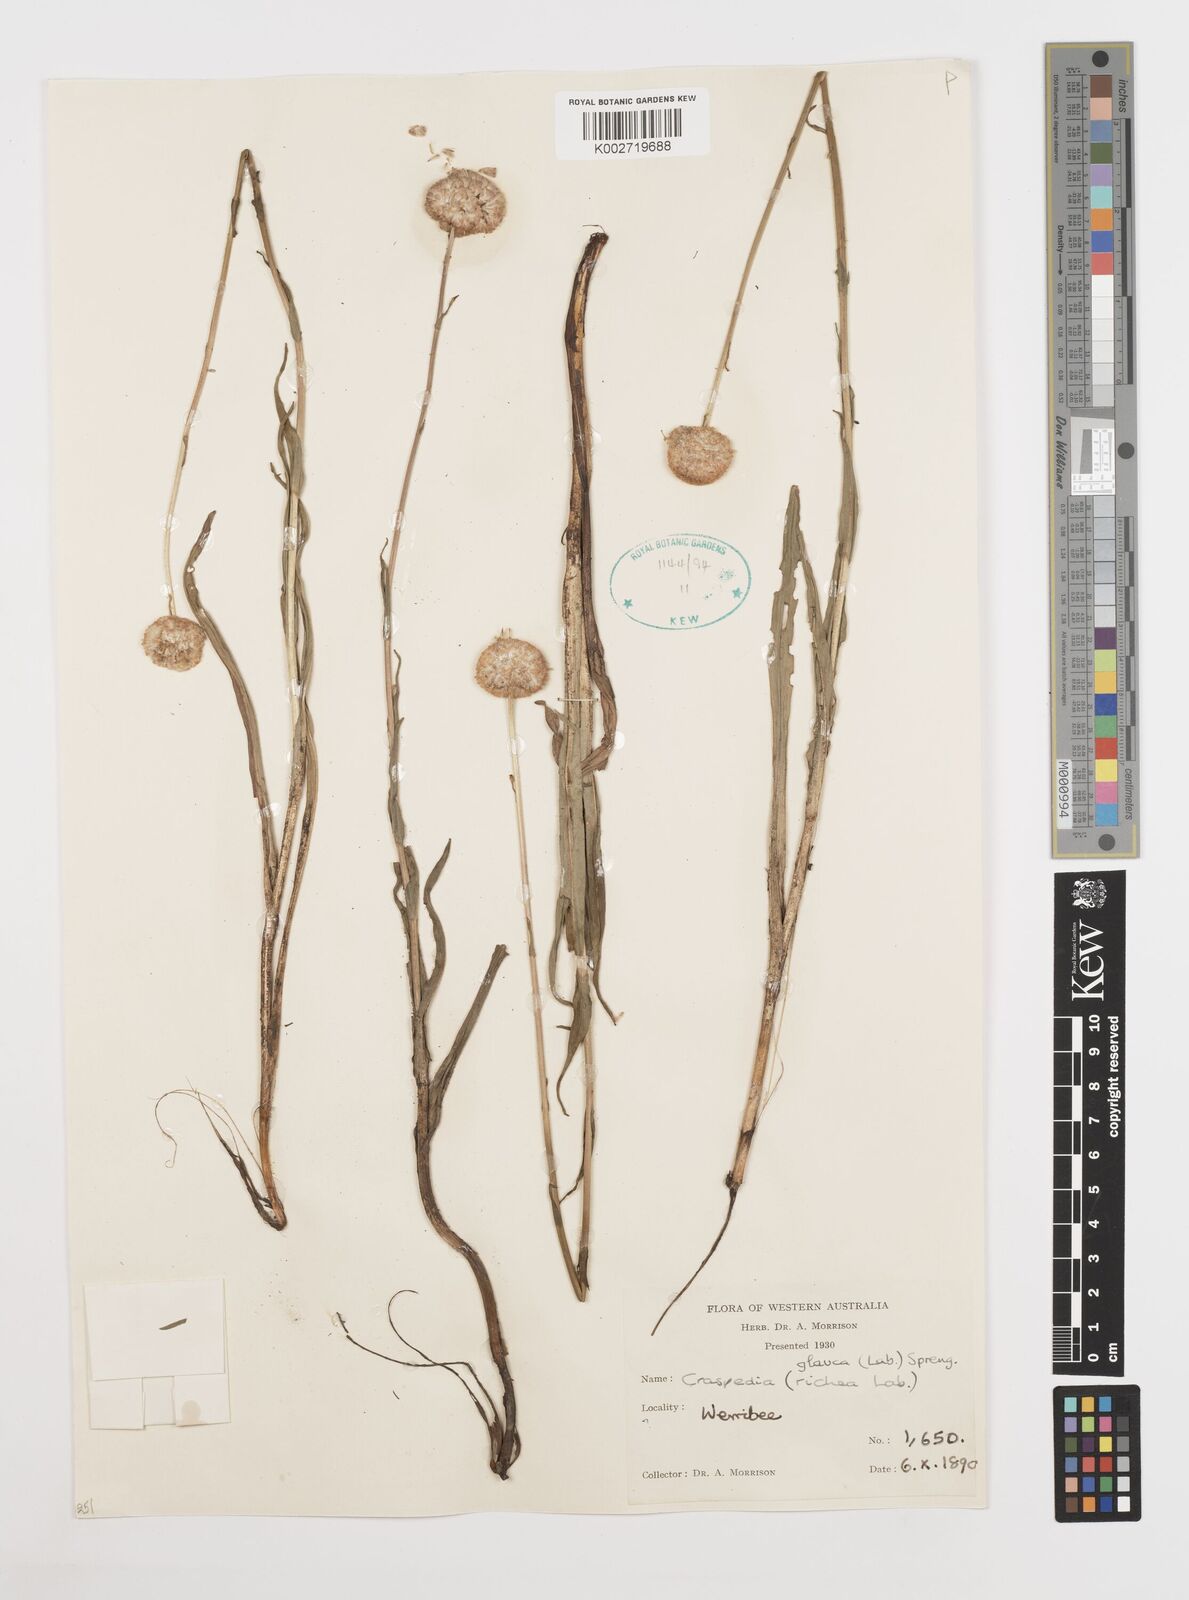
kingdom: Plantae
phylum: Tracheophyta
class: Magnoliopsida
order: Asterales
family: Asteraceae
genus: Craspedia
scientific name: Craspedia glauca
